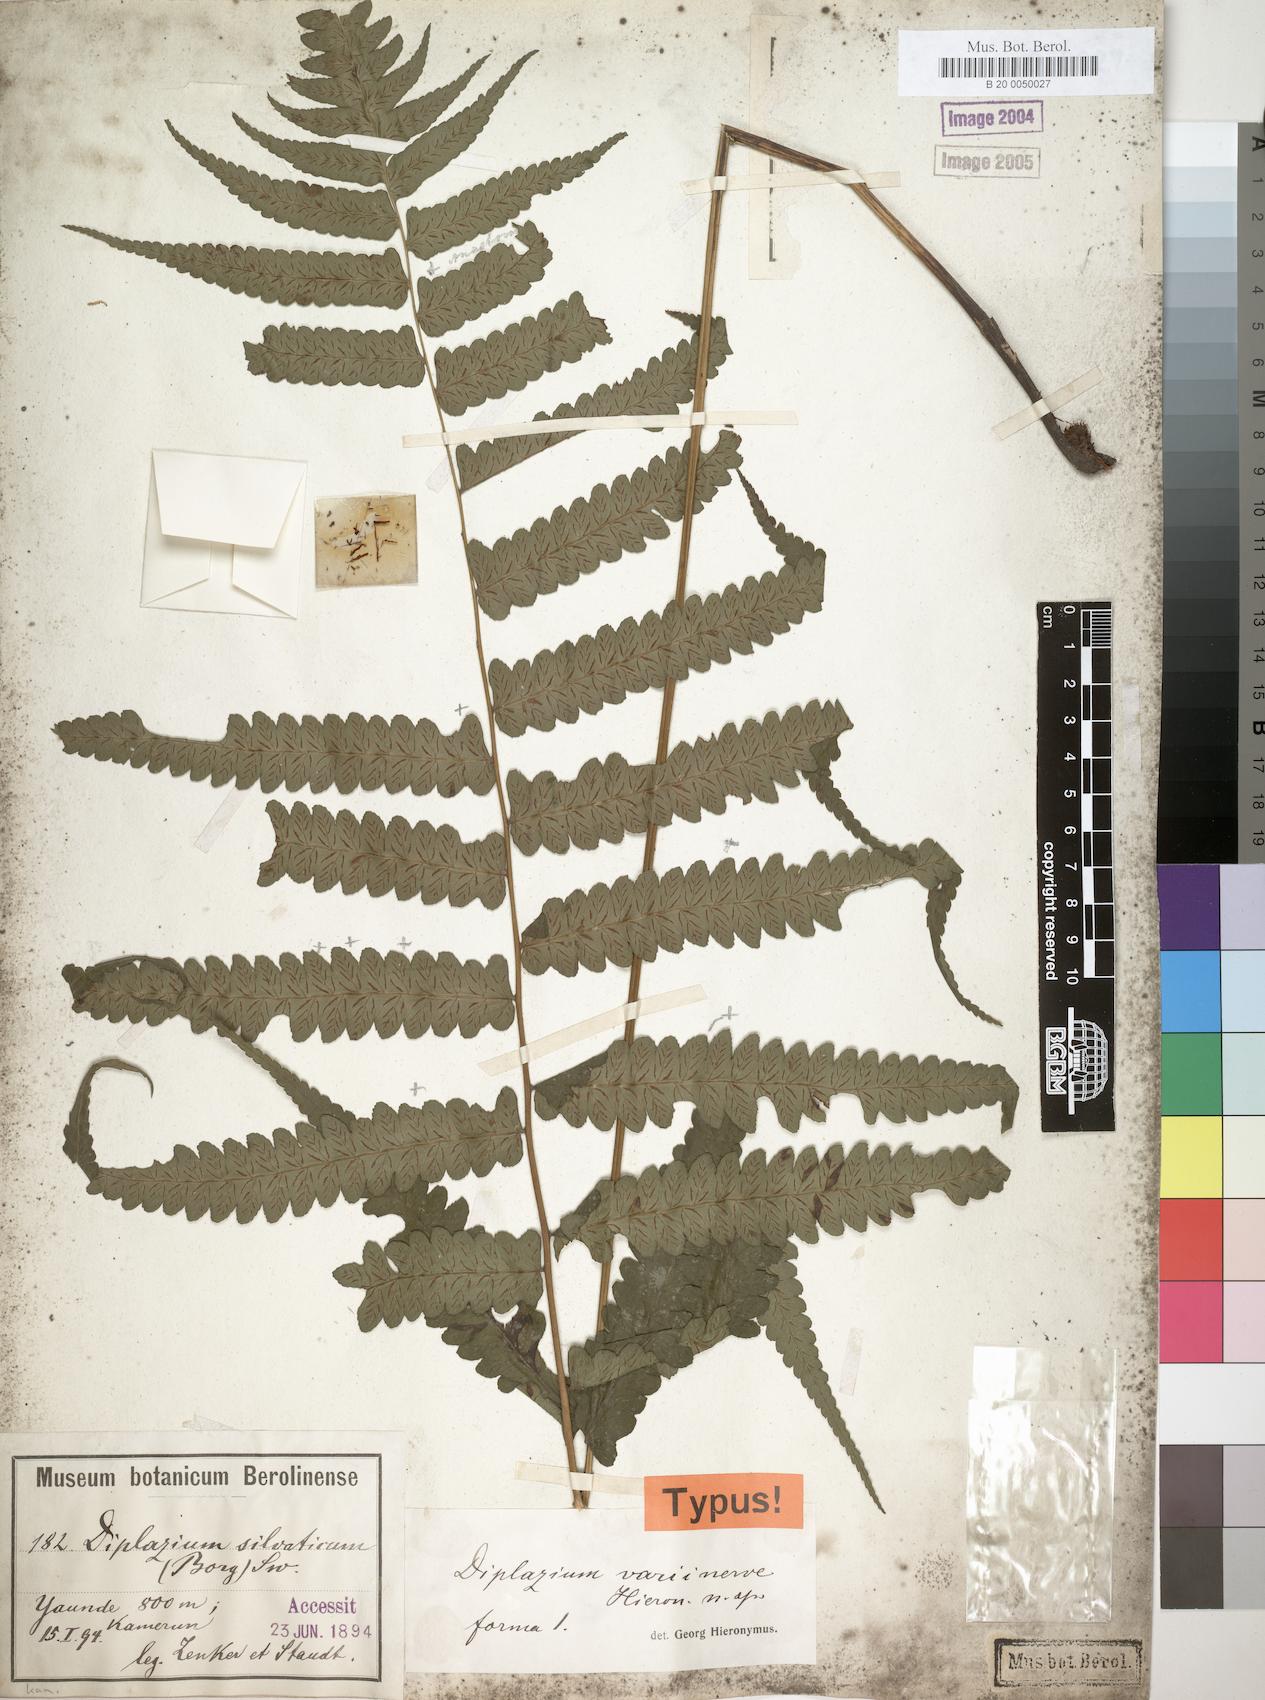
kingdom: Plantae
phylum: Tracheophyta
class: Polypodiopsida
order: Polypodiales
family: Athyriaceae
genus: Diplazium
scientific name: Diplazium welwitschii
